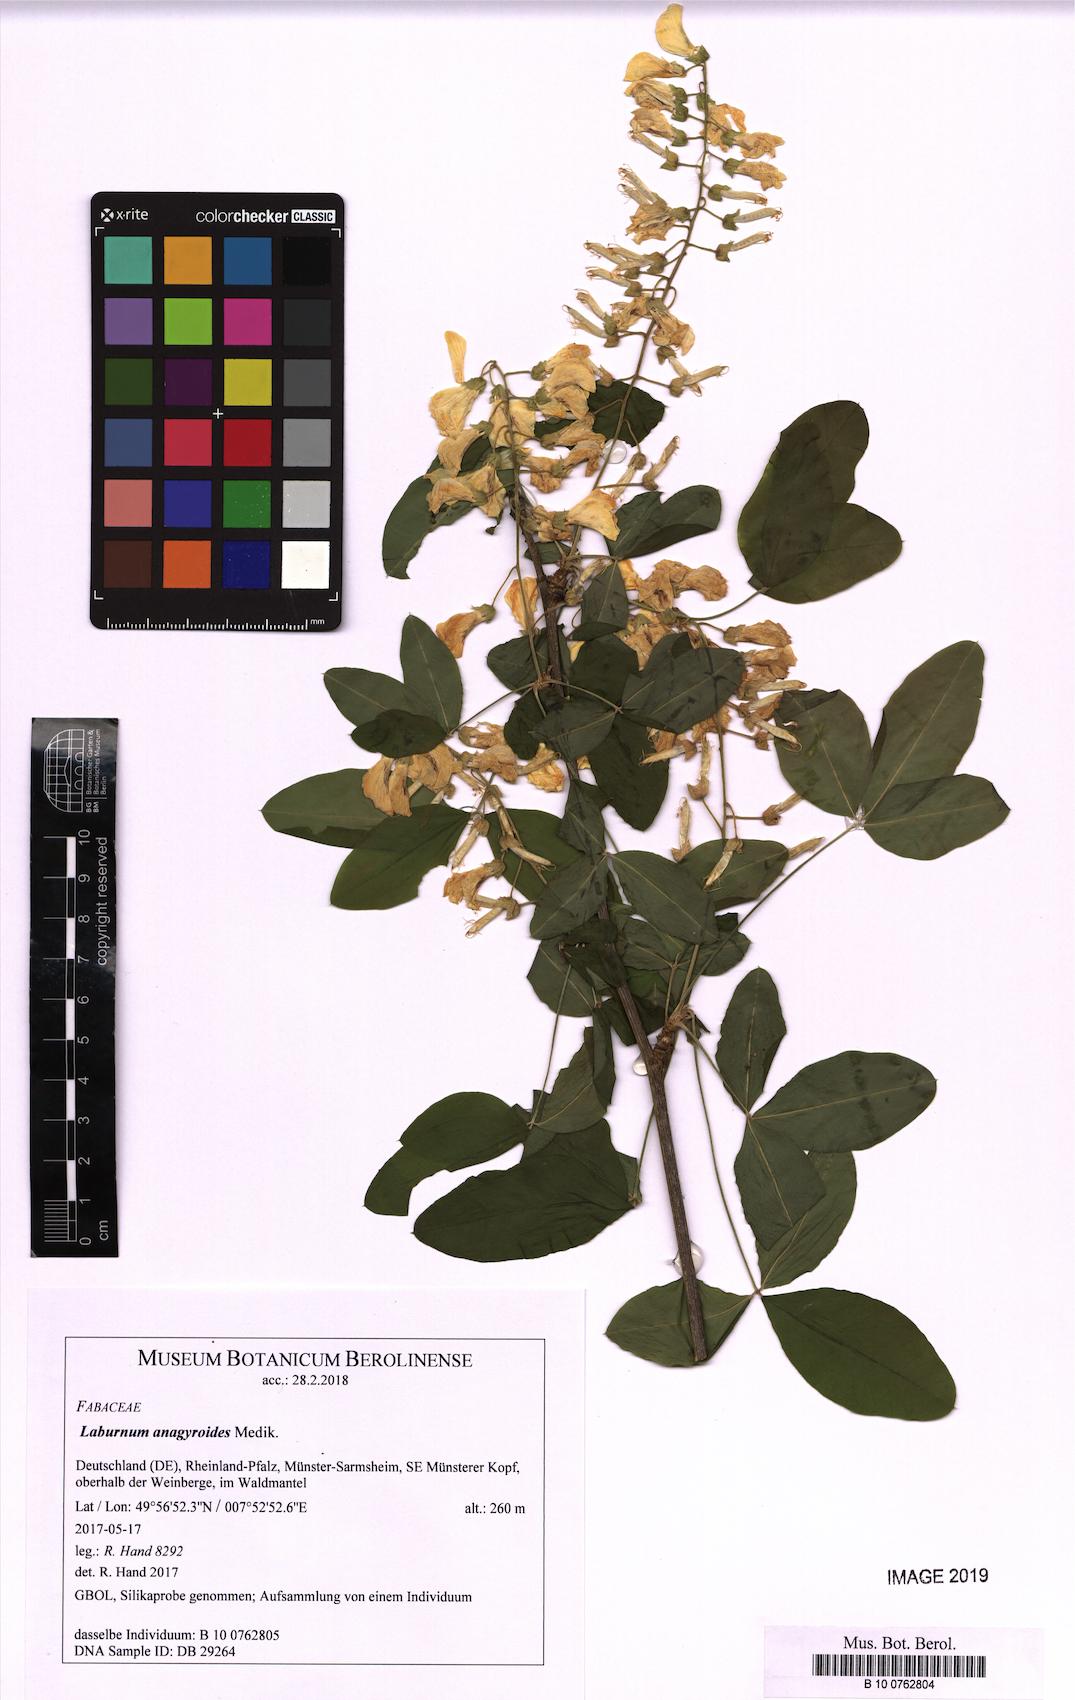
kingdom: Plantae
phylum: Tracheophyta
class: Magnoliopsida
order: Fabales
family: Fabaceae
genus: Laburnum
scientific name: Laburnum anagyroides
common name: Laburnum
